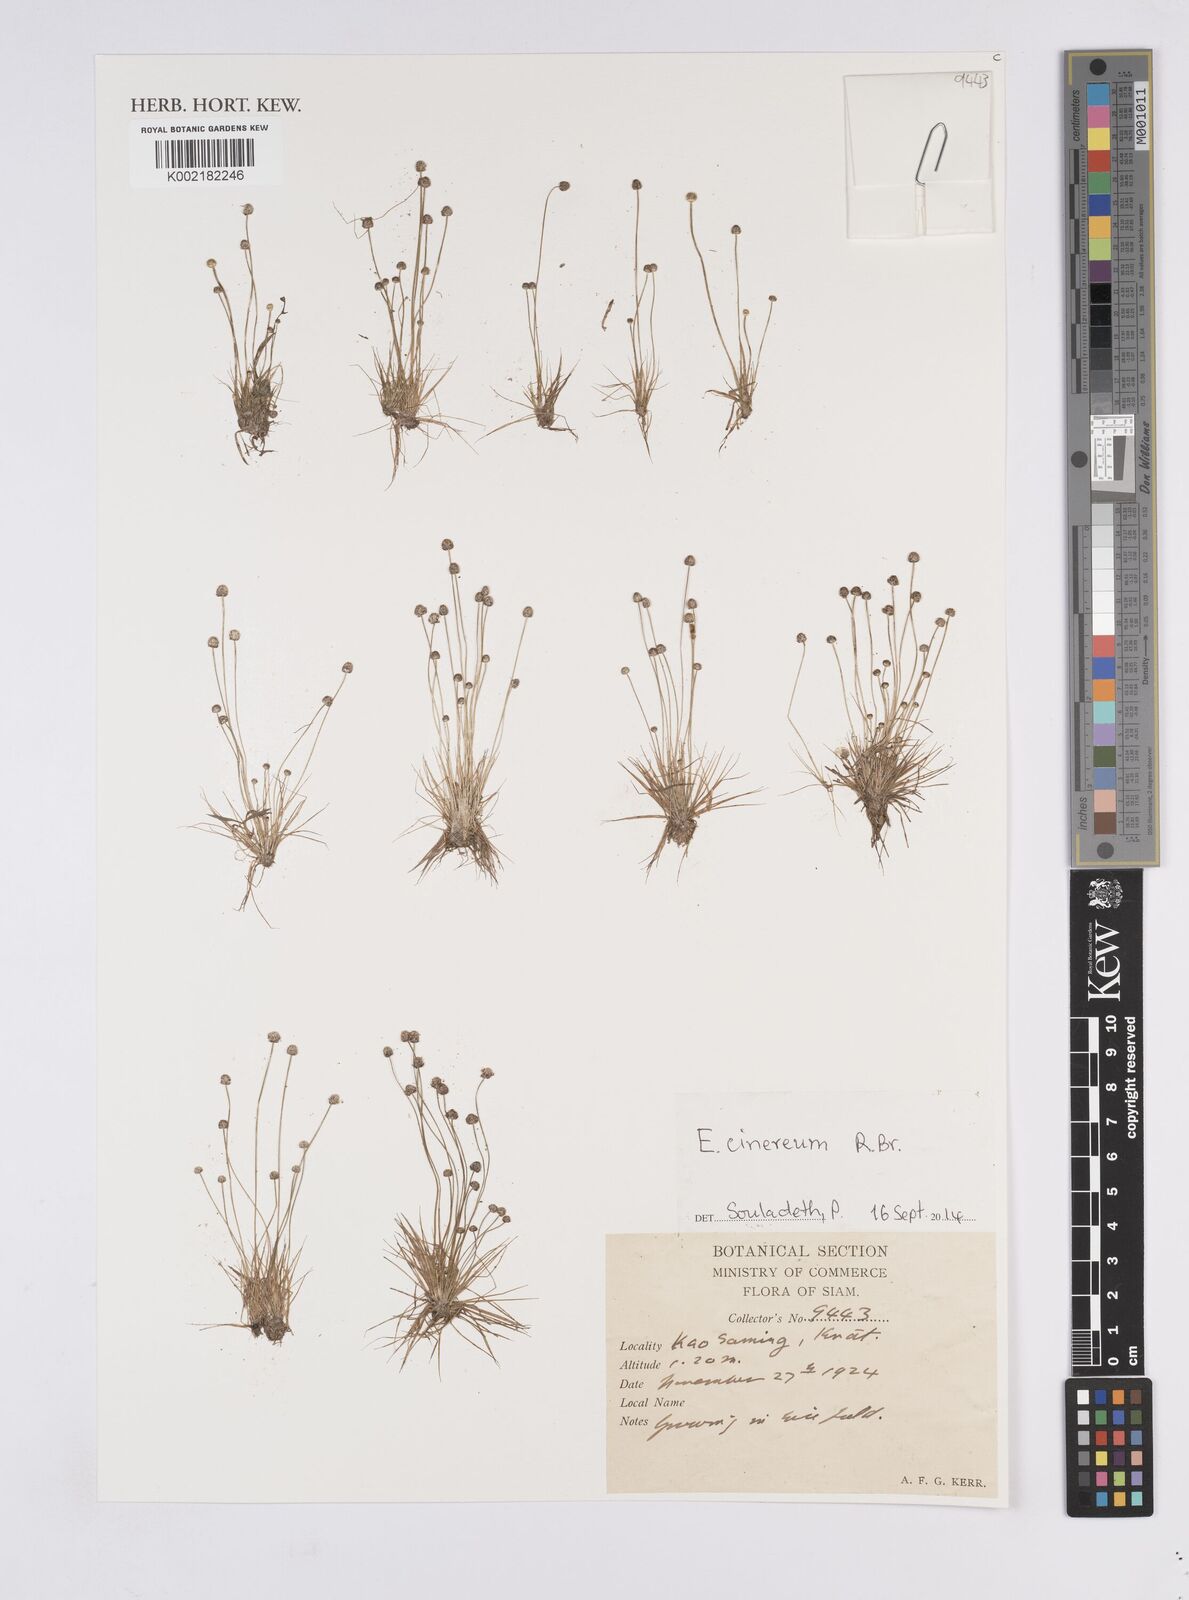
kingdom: Plantae
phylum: Tracheophyta
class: Liliopsida
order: Poales
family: Eriocaulaceae
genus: Eriocaulon
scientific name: Eriocaulon cinereum
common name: Ashy pipewort
